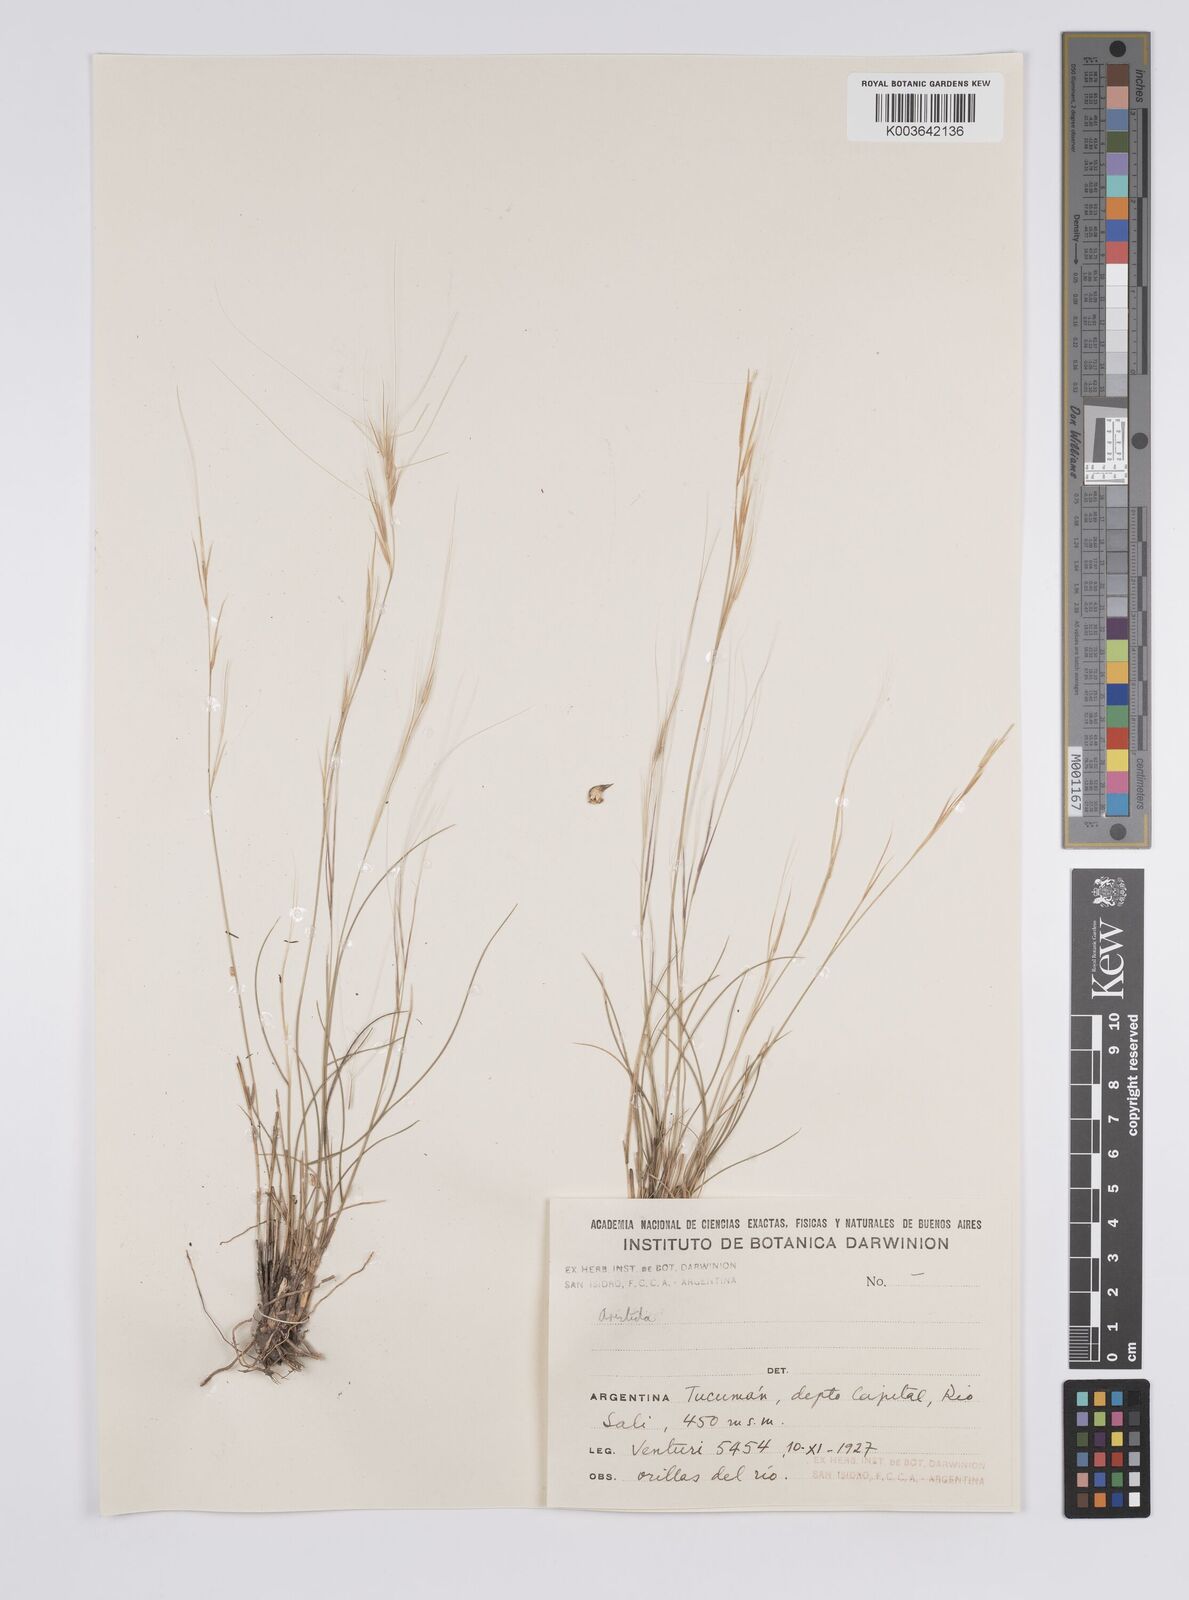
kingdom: Plantae
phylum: Tracheophyta
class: Liliopsida
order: Poales
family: Poaceae
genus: Aristida
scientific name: Aristida
